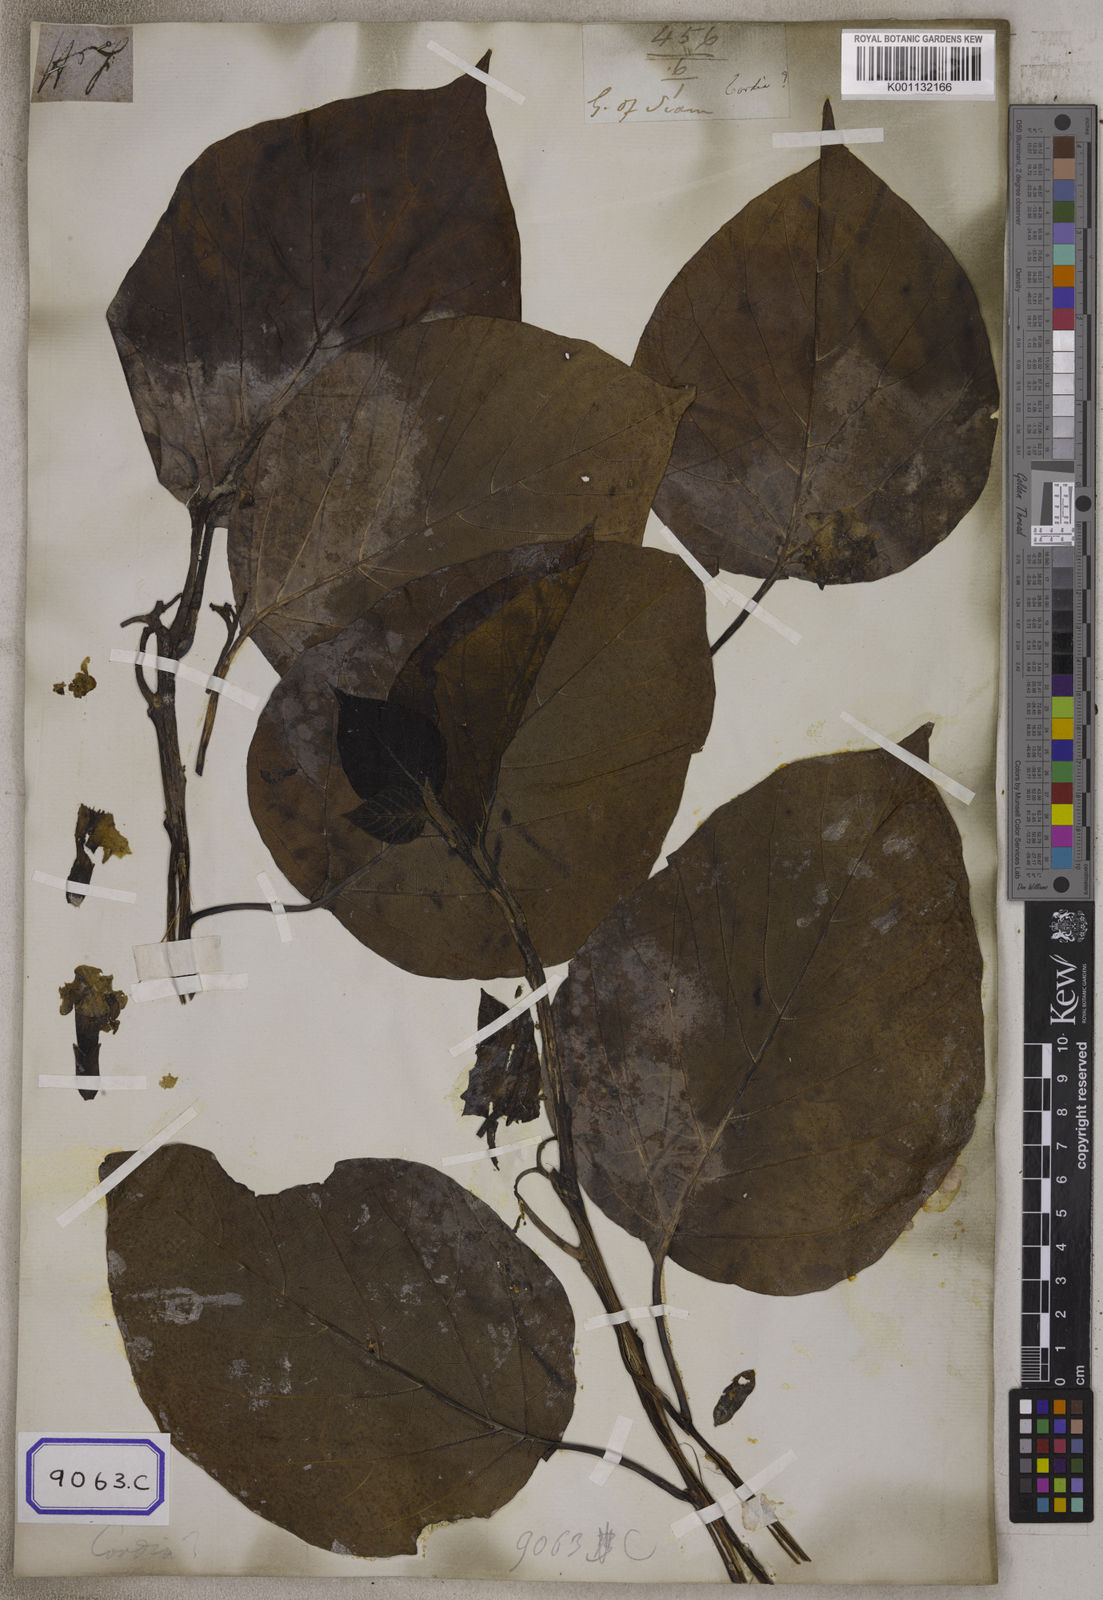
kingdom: Plantae
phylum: Tracheophyta
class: Magnoliopsida
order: Boraginales
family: Cordiaceae
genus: Cordia
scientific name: Cordia subcordata
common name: Mareer
